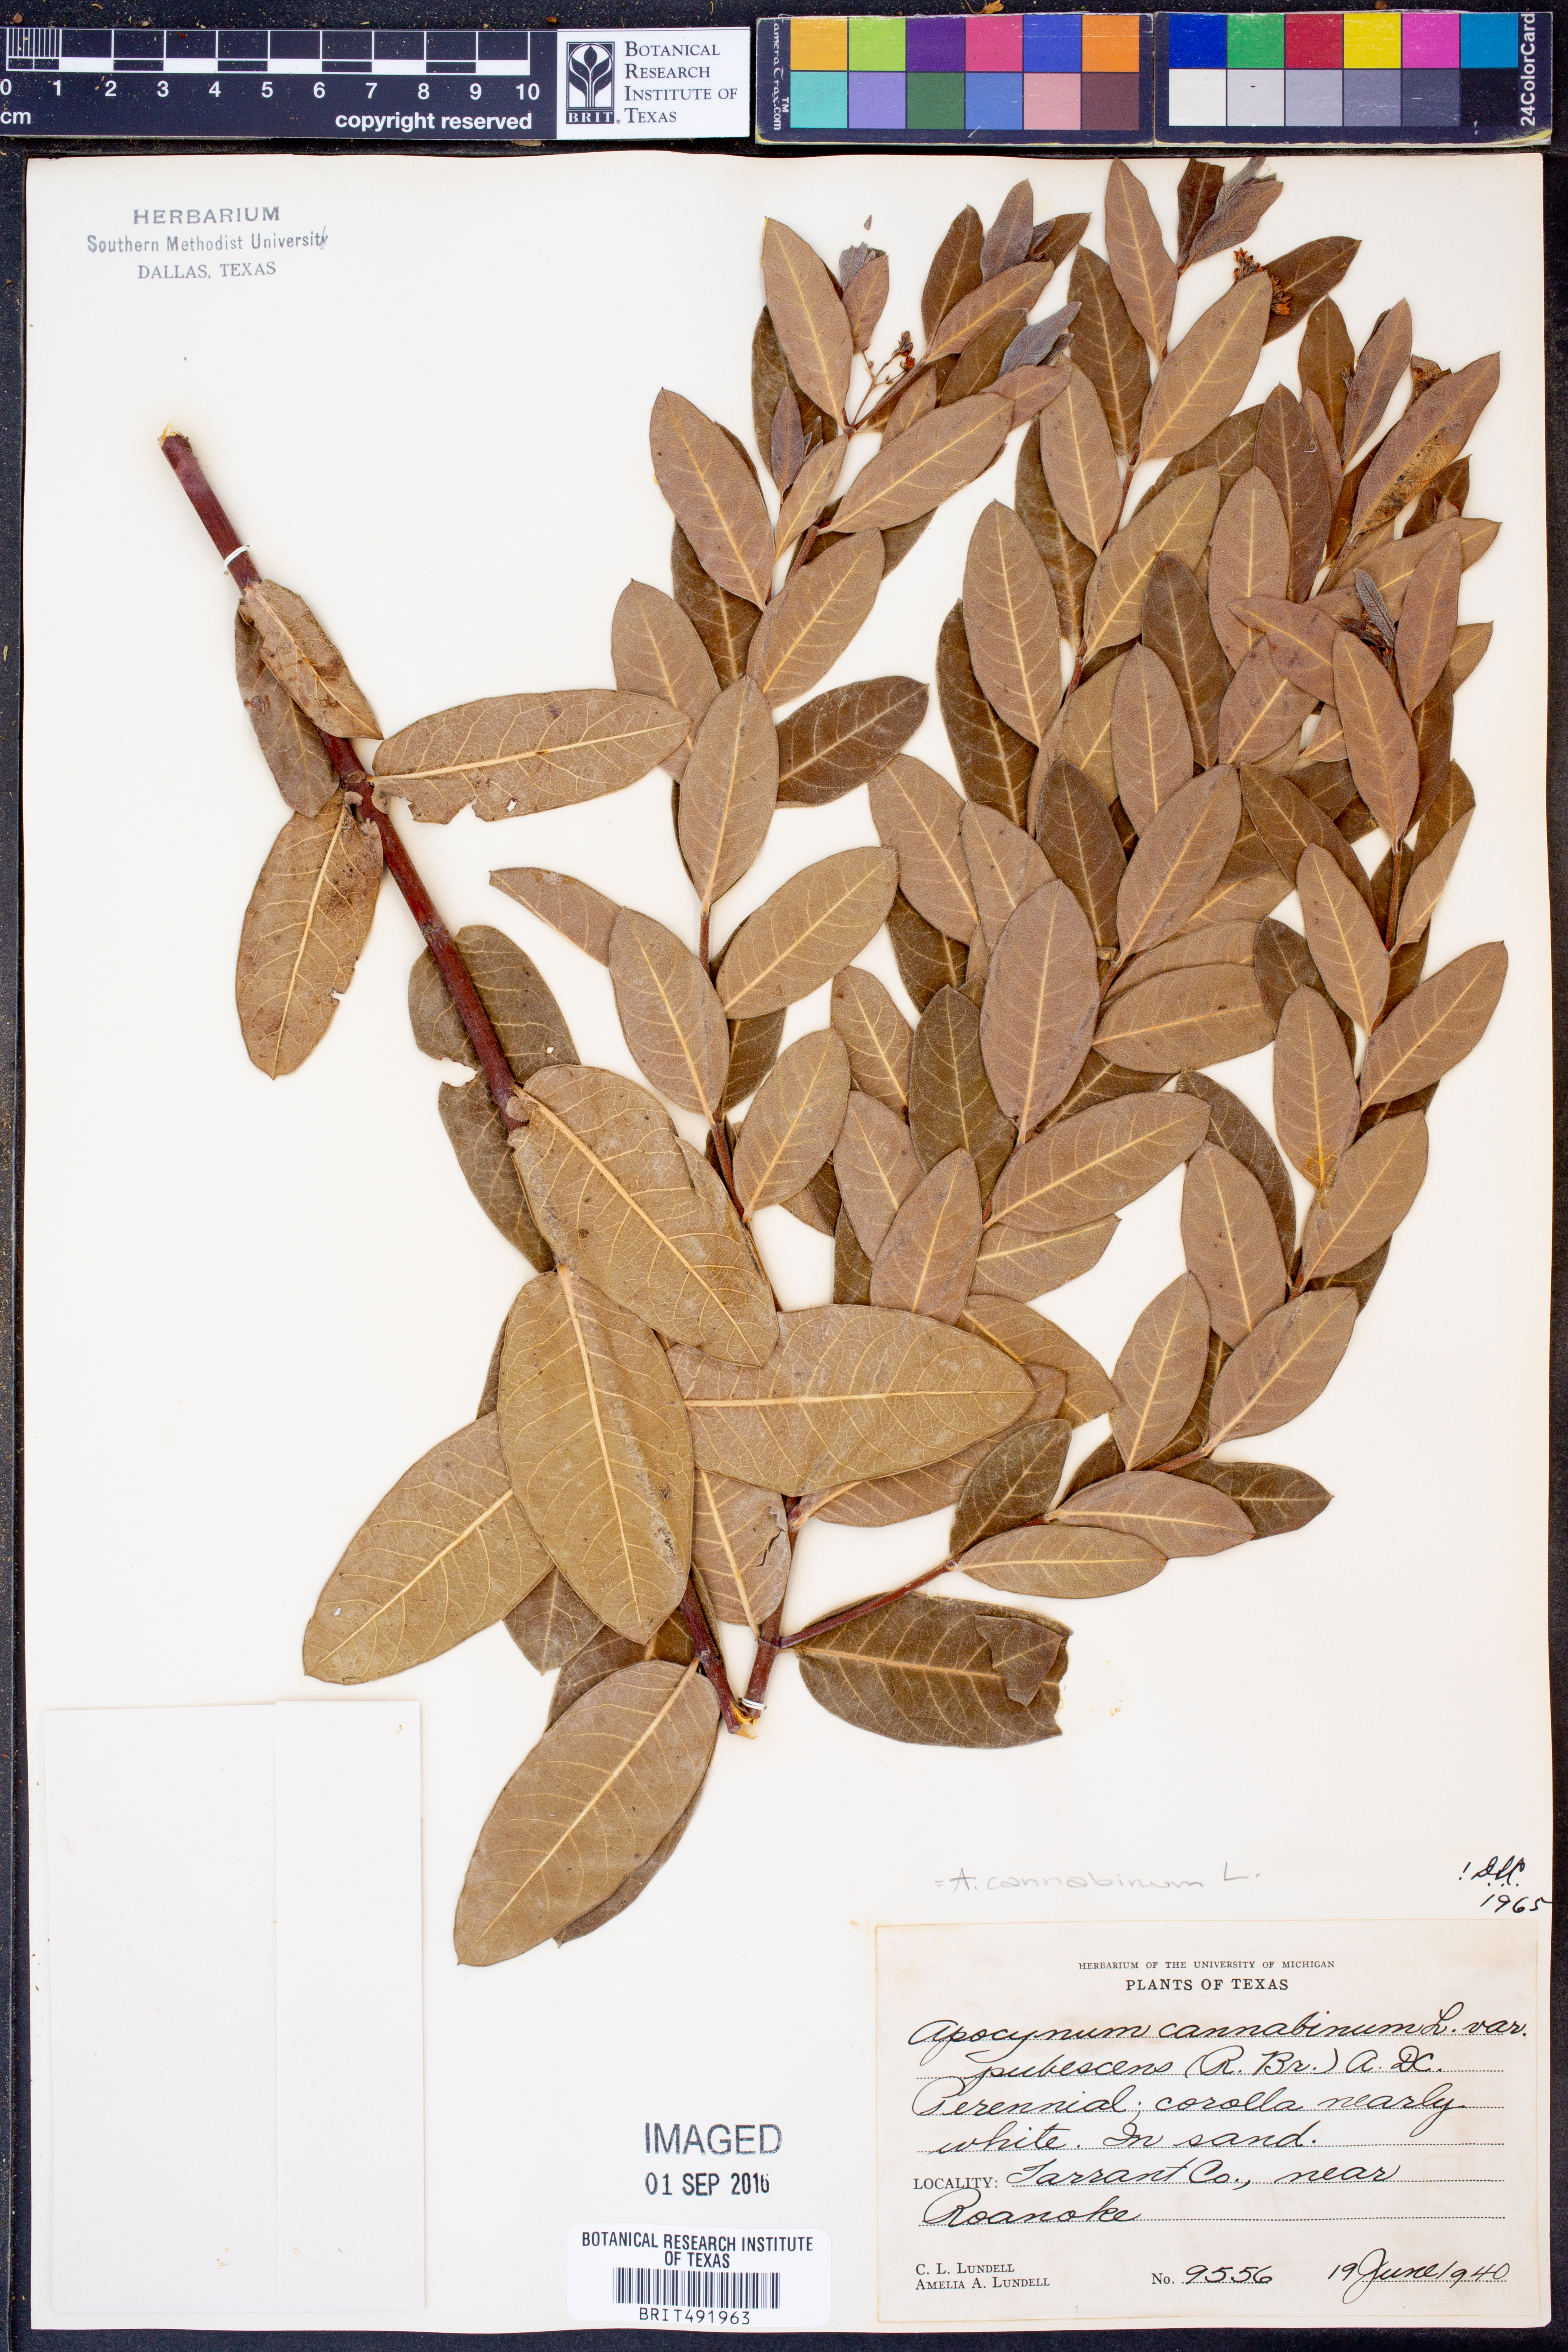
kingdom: Plantae
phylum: Tracheophyta
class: Magnoliopsida
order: Gentianales
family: Apocynaceae
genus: Apocynum
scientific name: Apocynum cannabinum
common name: Hemp dogbane
